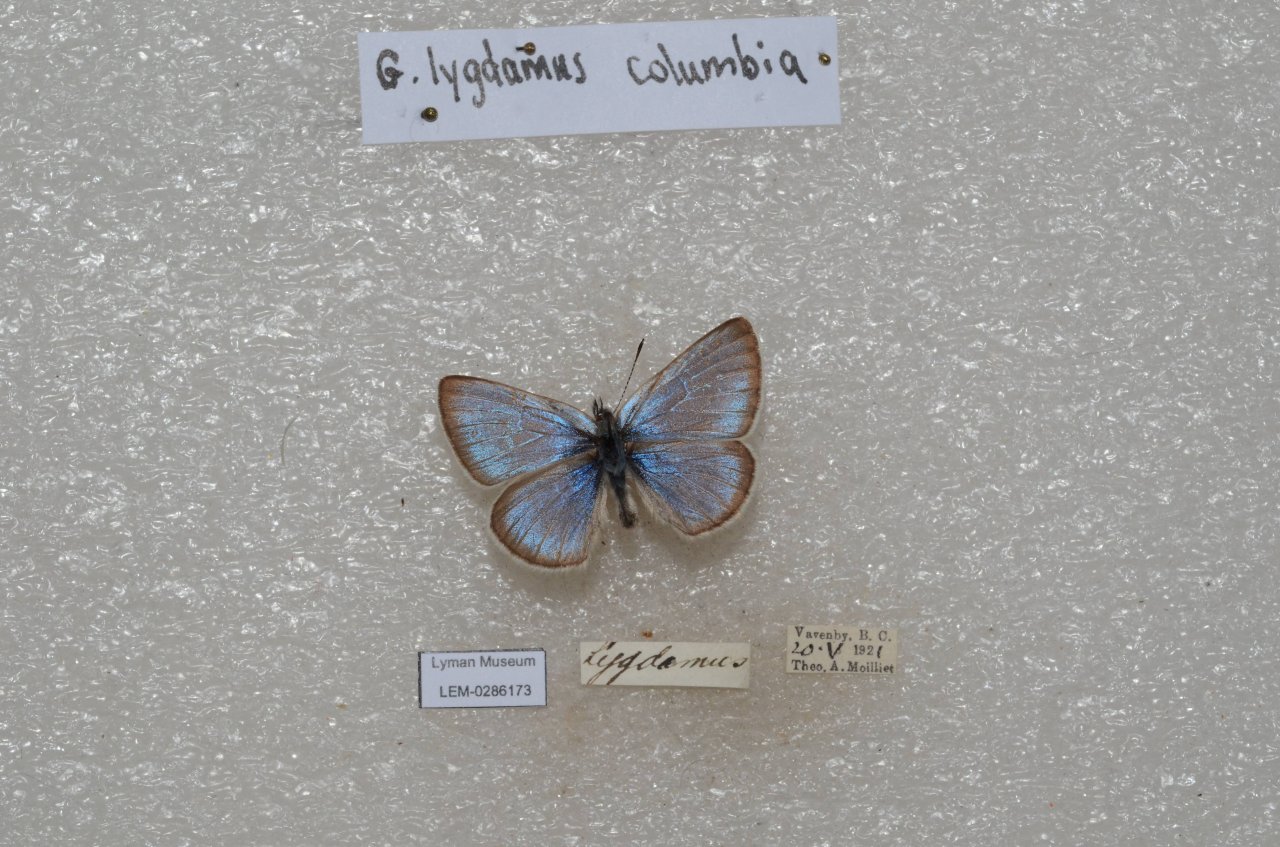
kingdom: Animalia
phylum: Arthropoda
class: Insecta
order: Lepidoptera
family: Lycaenidae
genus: Glaucopsyche
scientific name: Glaucopsyche lygdamus
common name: Silvery Blue
